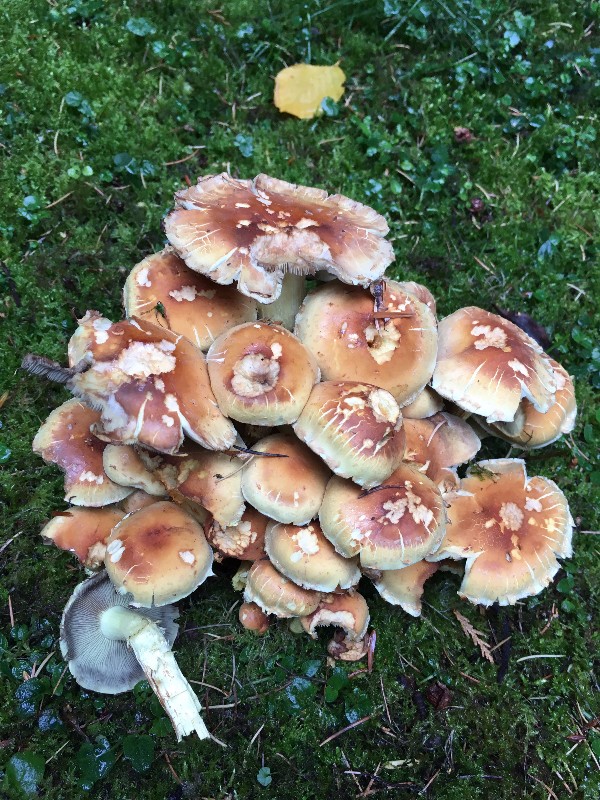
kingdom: Fungi
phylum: Basidiomycota
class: Agaricomycetes
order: Agaricales
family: Strophariaceae
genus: Hypholoma
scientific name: Hypholoma fasciculare
